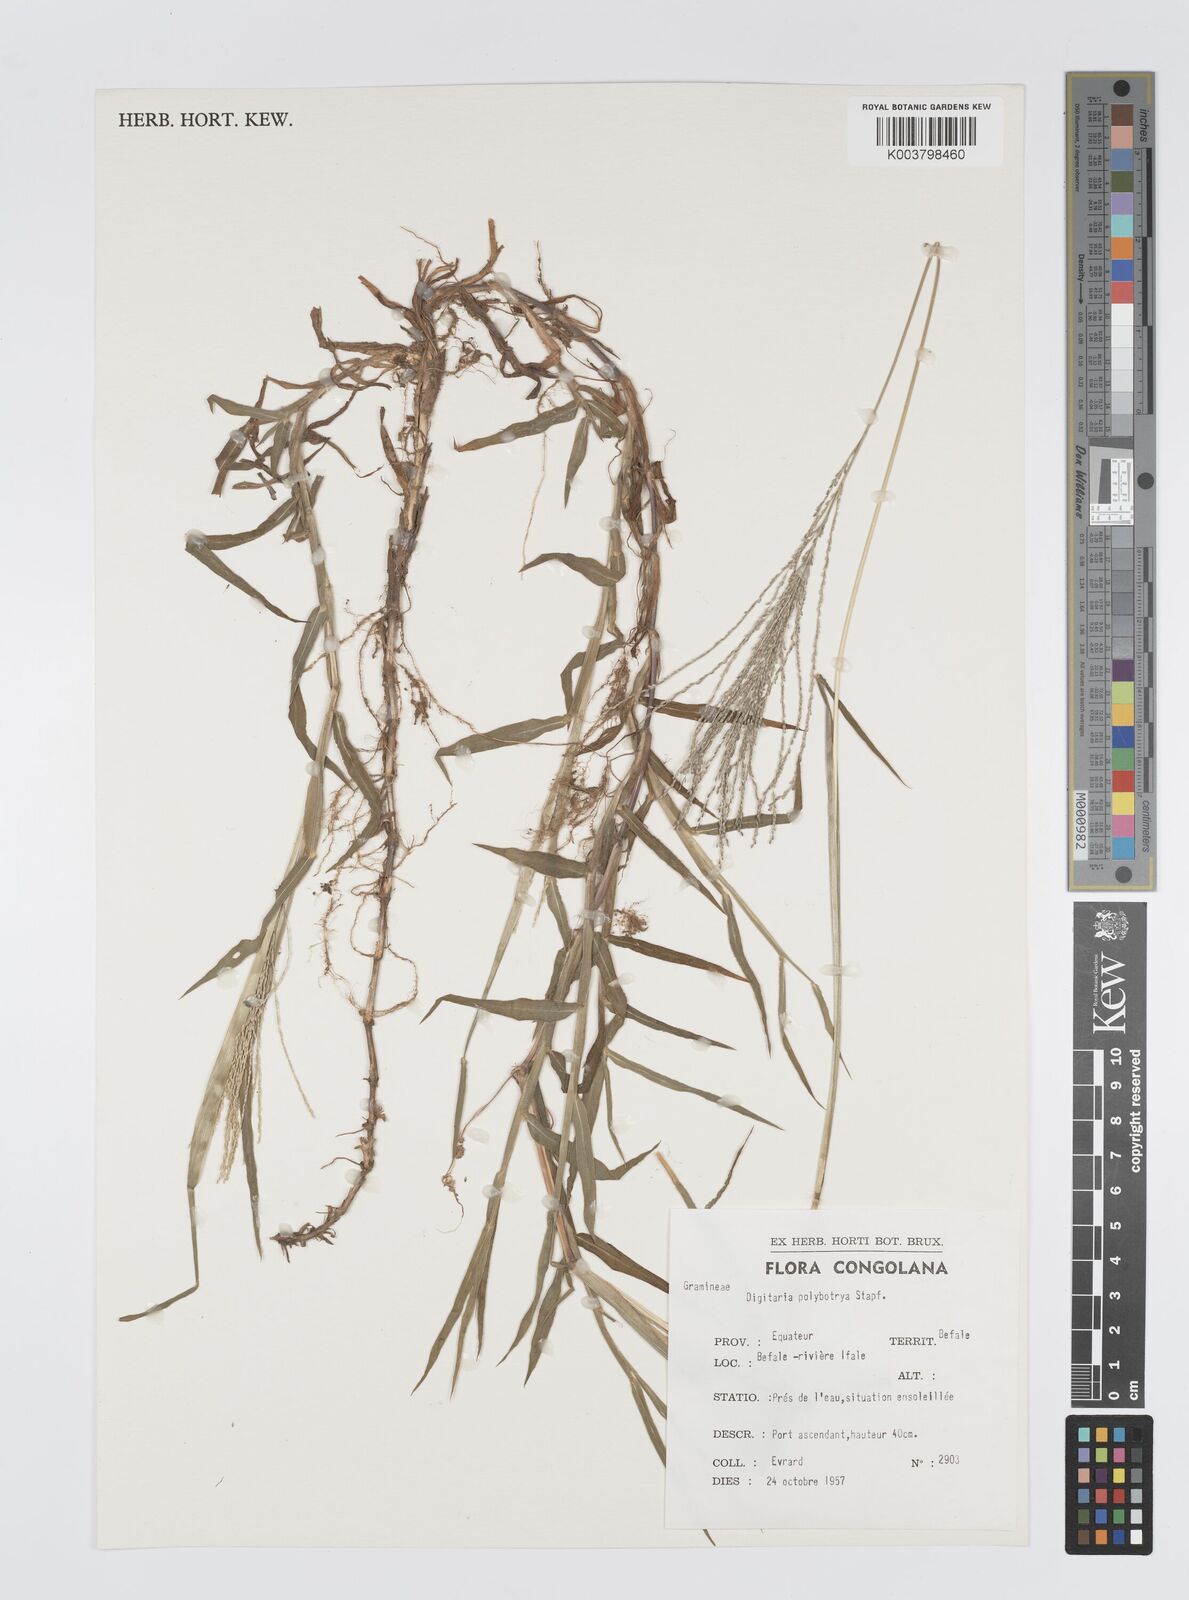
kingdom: Plantae
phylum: Tracheophyta
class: Liliopsida
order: Poales
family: Poaceae
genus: Digitaria
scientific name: Digitaria leptorhachis
